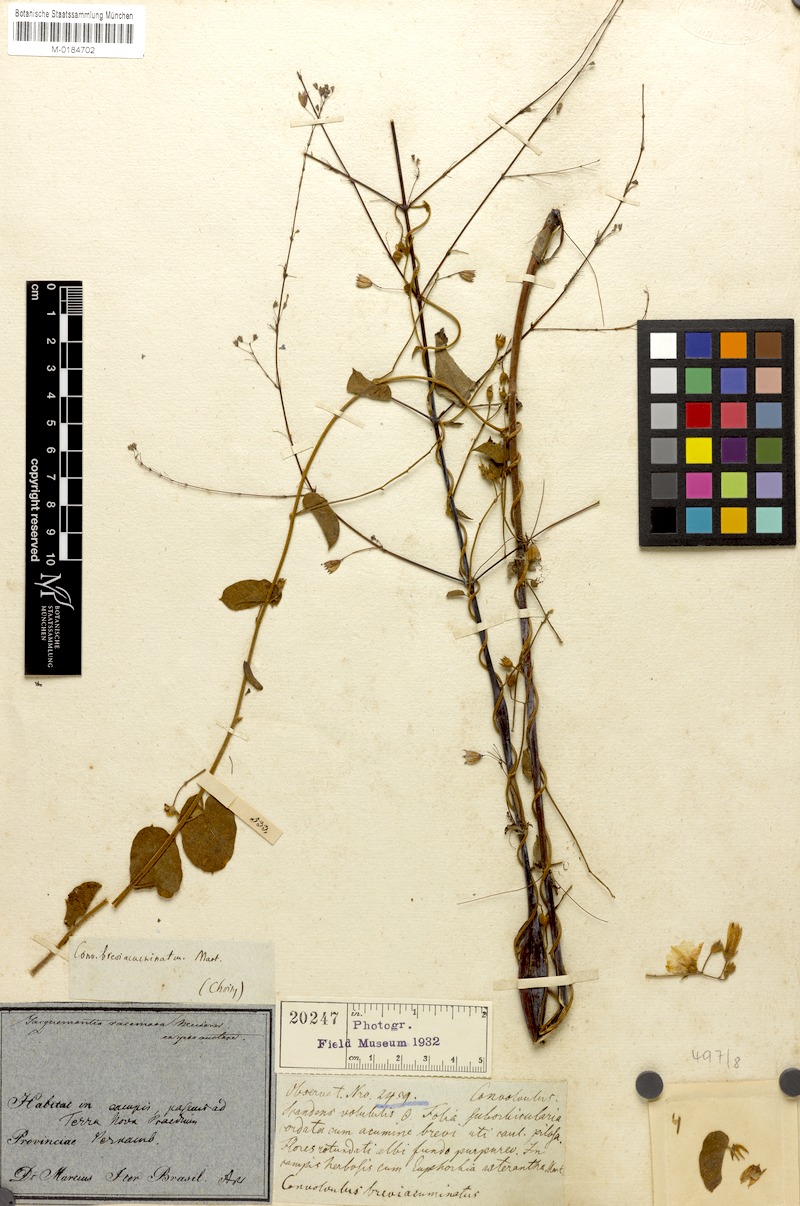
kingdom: Plantae
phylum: Tracheophyta
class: Magnoliopsida
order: Solanales
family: Convolvulaceae
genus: Jacquemontia
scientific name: Jacquemontia evolvuloides
